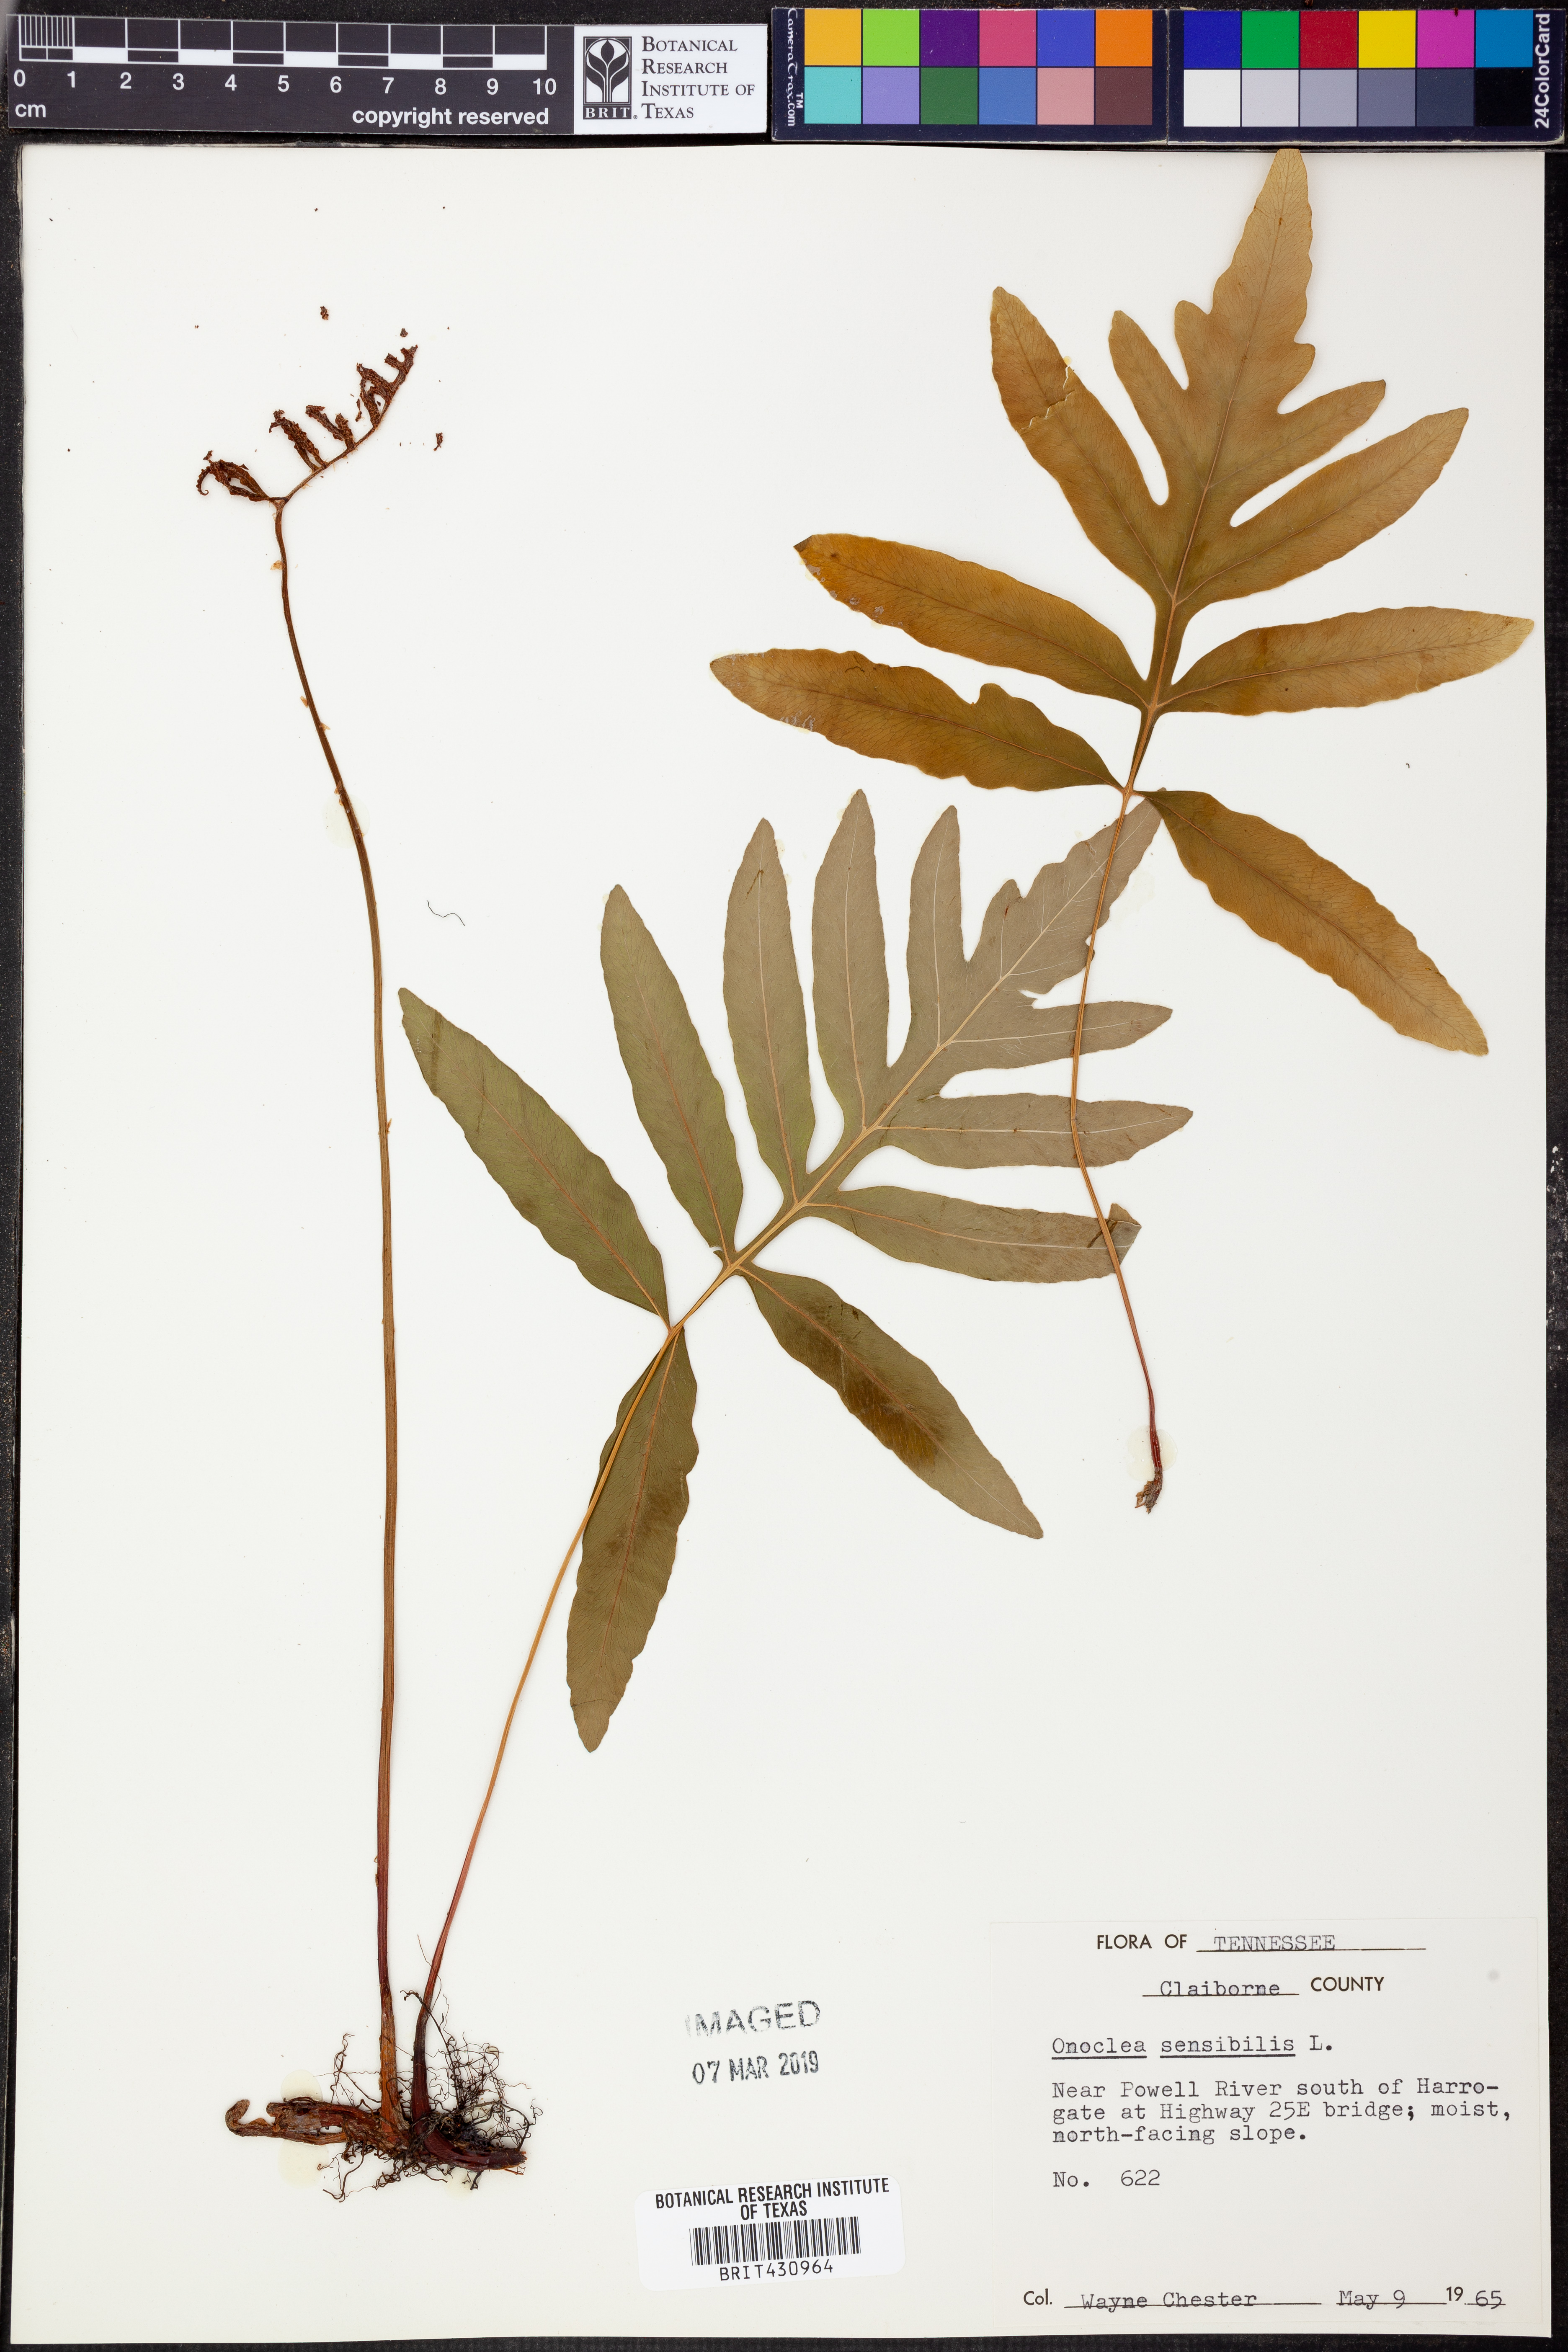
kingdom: Plantae
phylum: Tracheophyta
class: Polypodiopsida
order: Polypodiales
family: Onocleaceae
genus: Onoclea
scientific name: Onoclea sensibilis
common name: Sensitive fern
